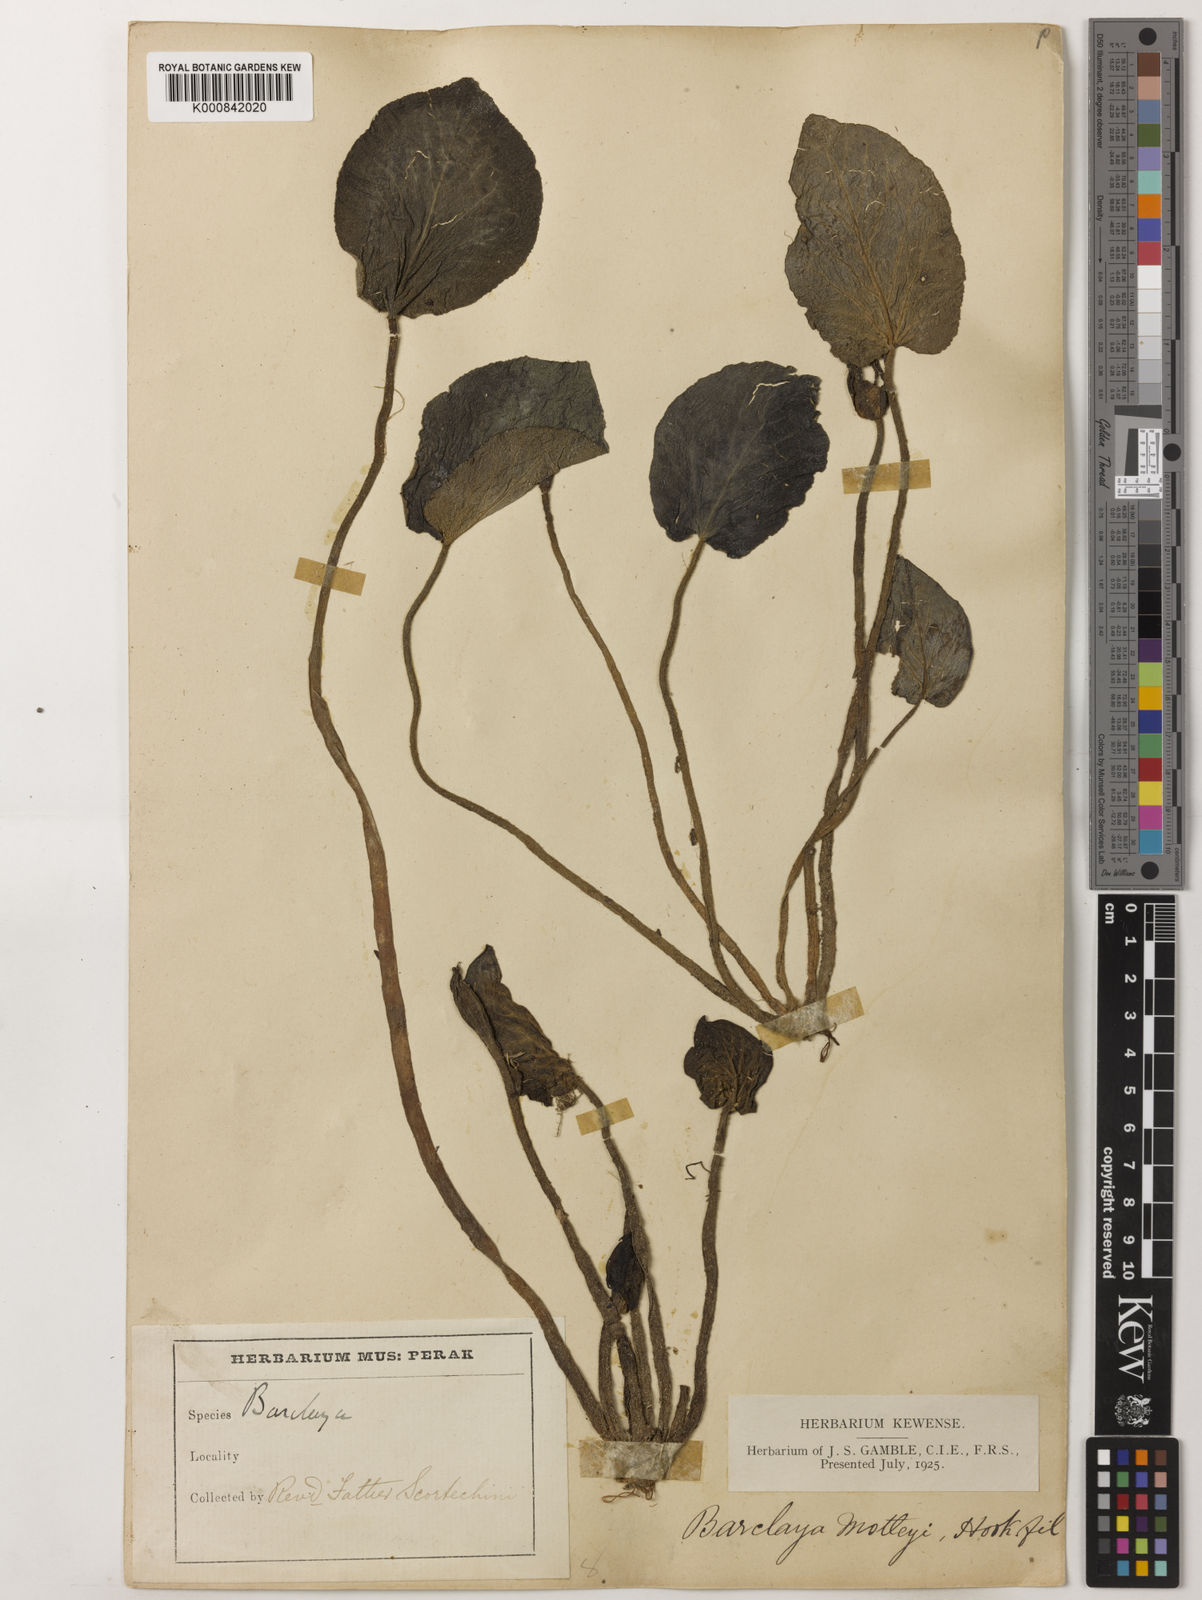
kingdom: Plantae
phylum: Tracheophyta
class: Magnoliopsida
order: Nymphaeales
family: Nymphaeaceae
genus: Barclaya
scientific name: Barclaya motleyi
